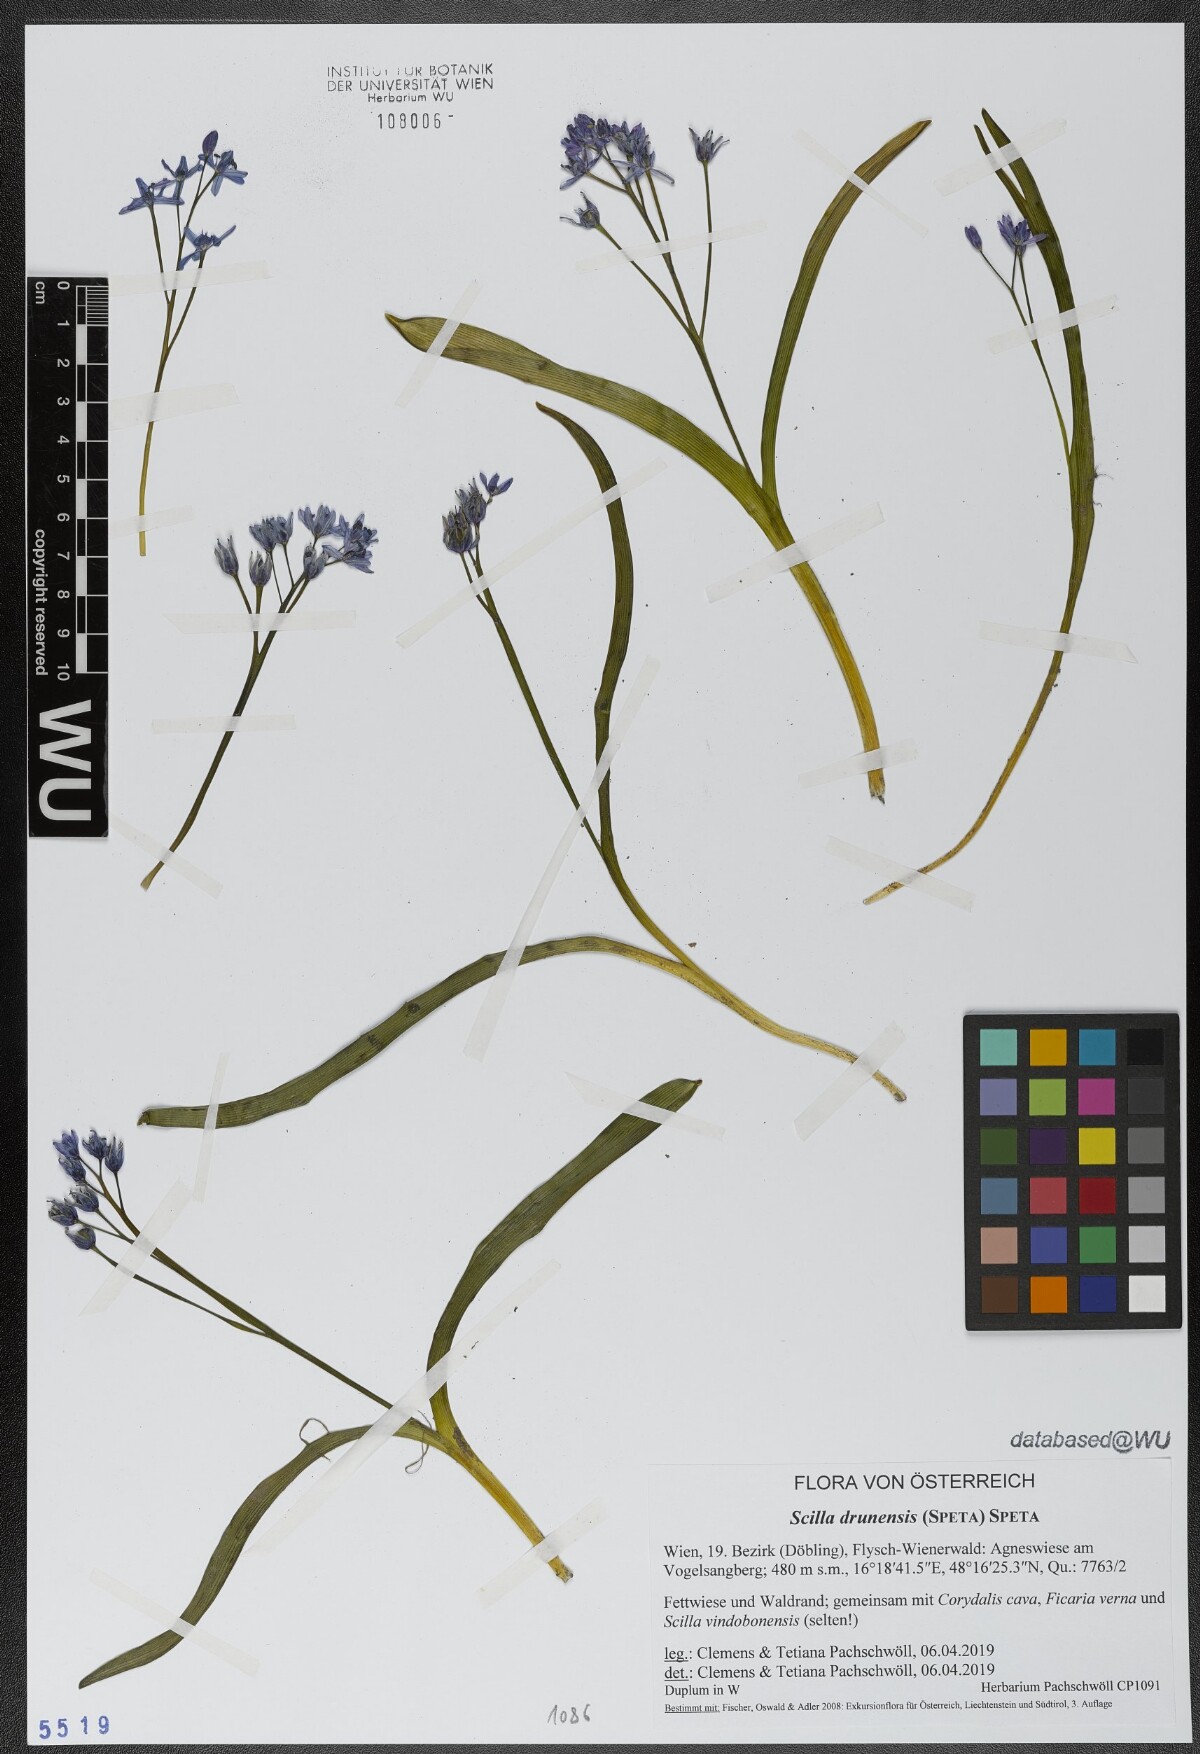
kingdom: Plantae
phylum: Tracheophyta
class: Liliopsida
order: Asparagales
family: Asparagaceae
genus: Scilla
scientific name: Scilla bifolia
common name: Alpine squill
